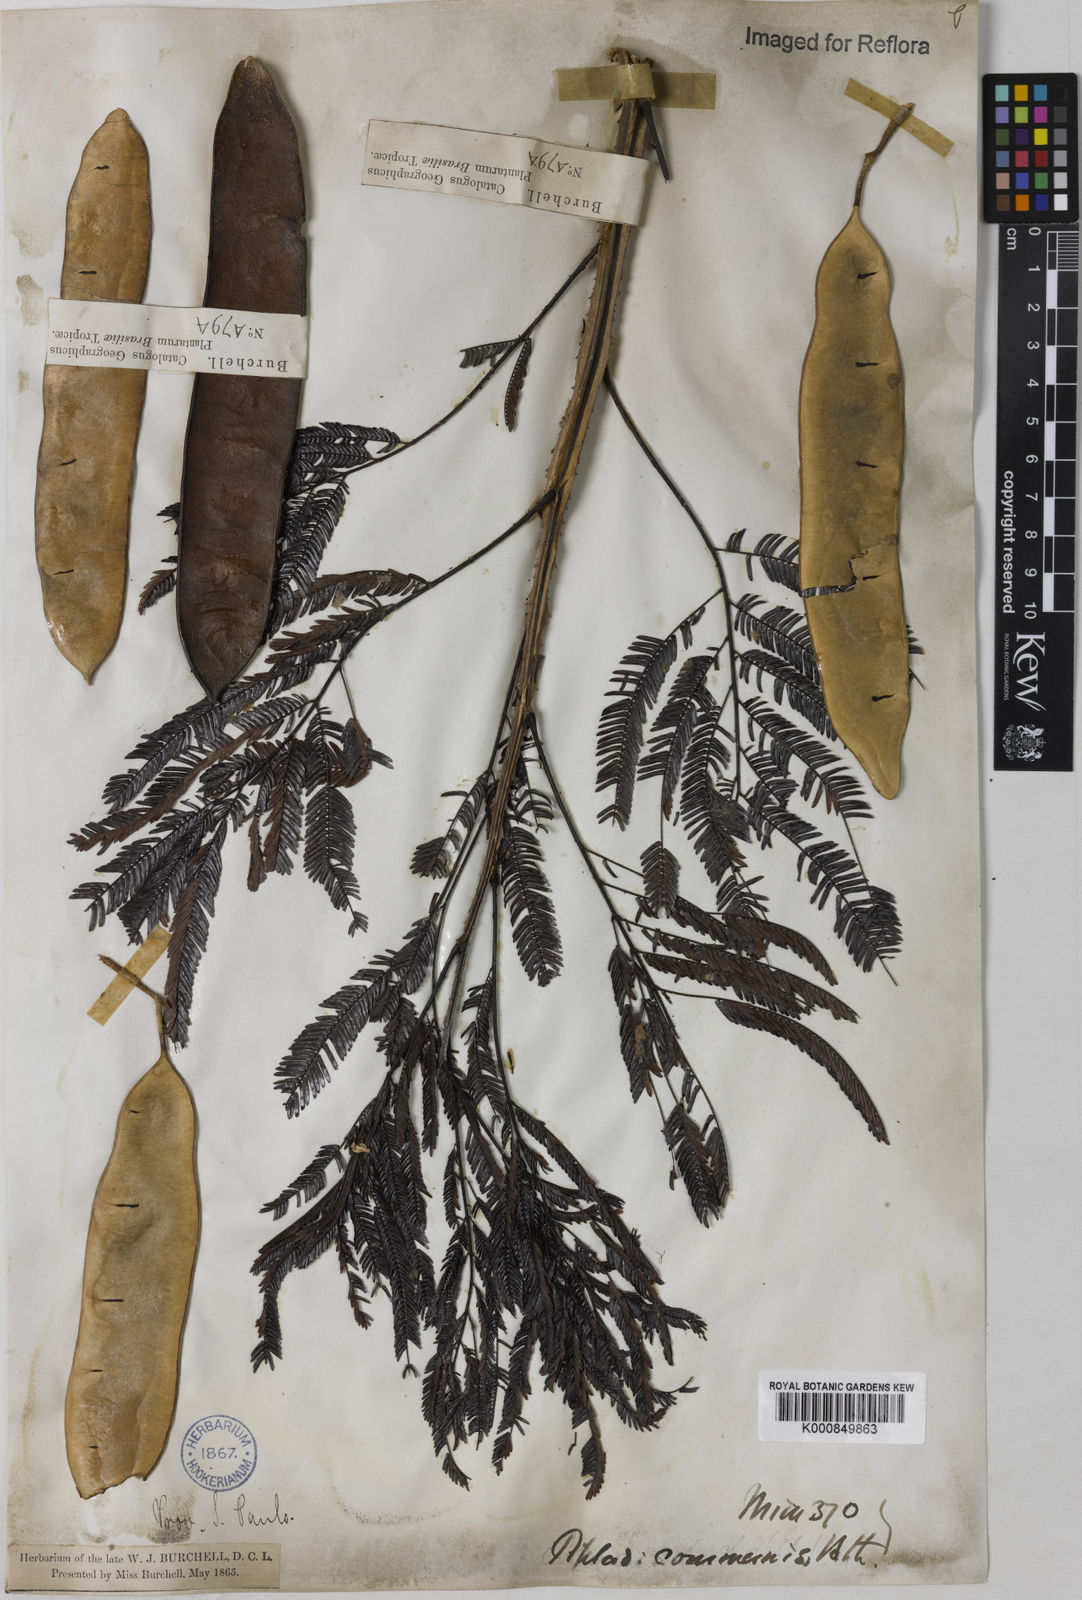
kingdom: Plantae
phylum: Tracheophyta
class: Magnoliopsida
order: Fabales
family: Fabaceae
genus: Piptadenia
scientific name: Piptadenia gonoacantha
